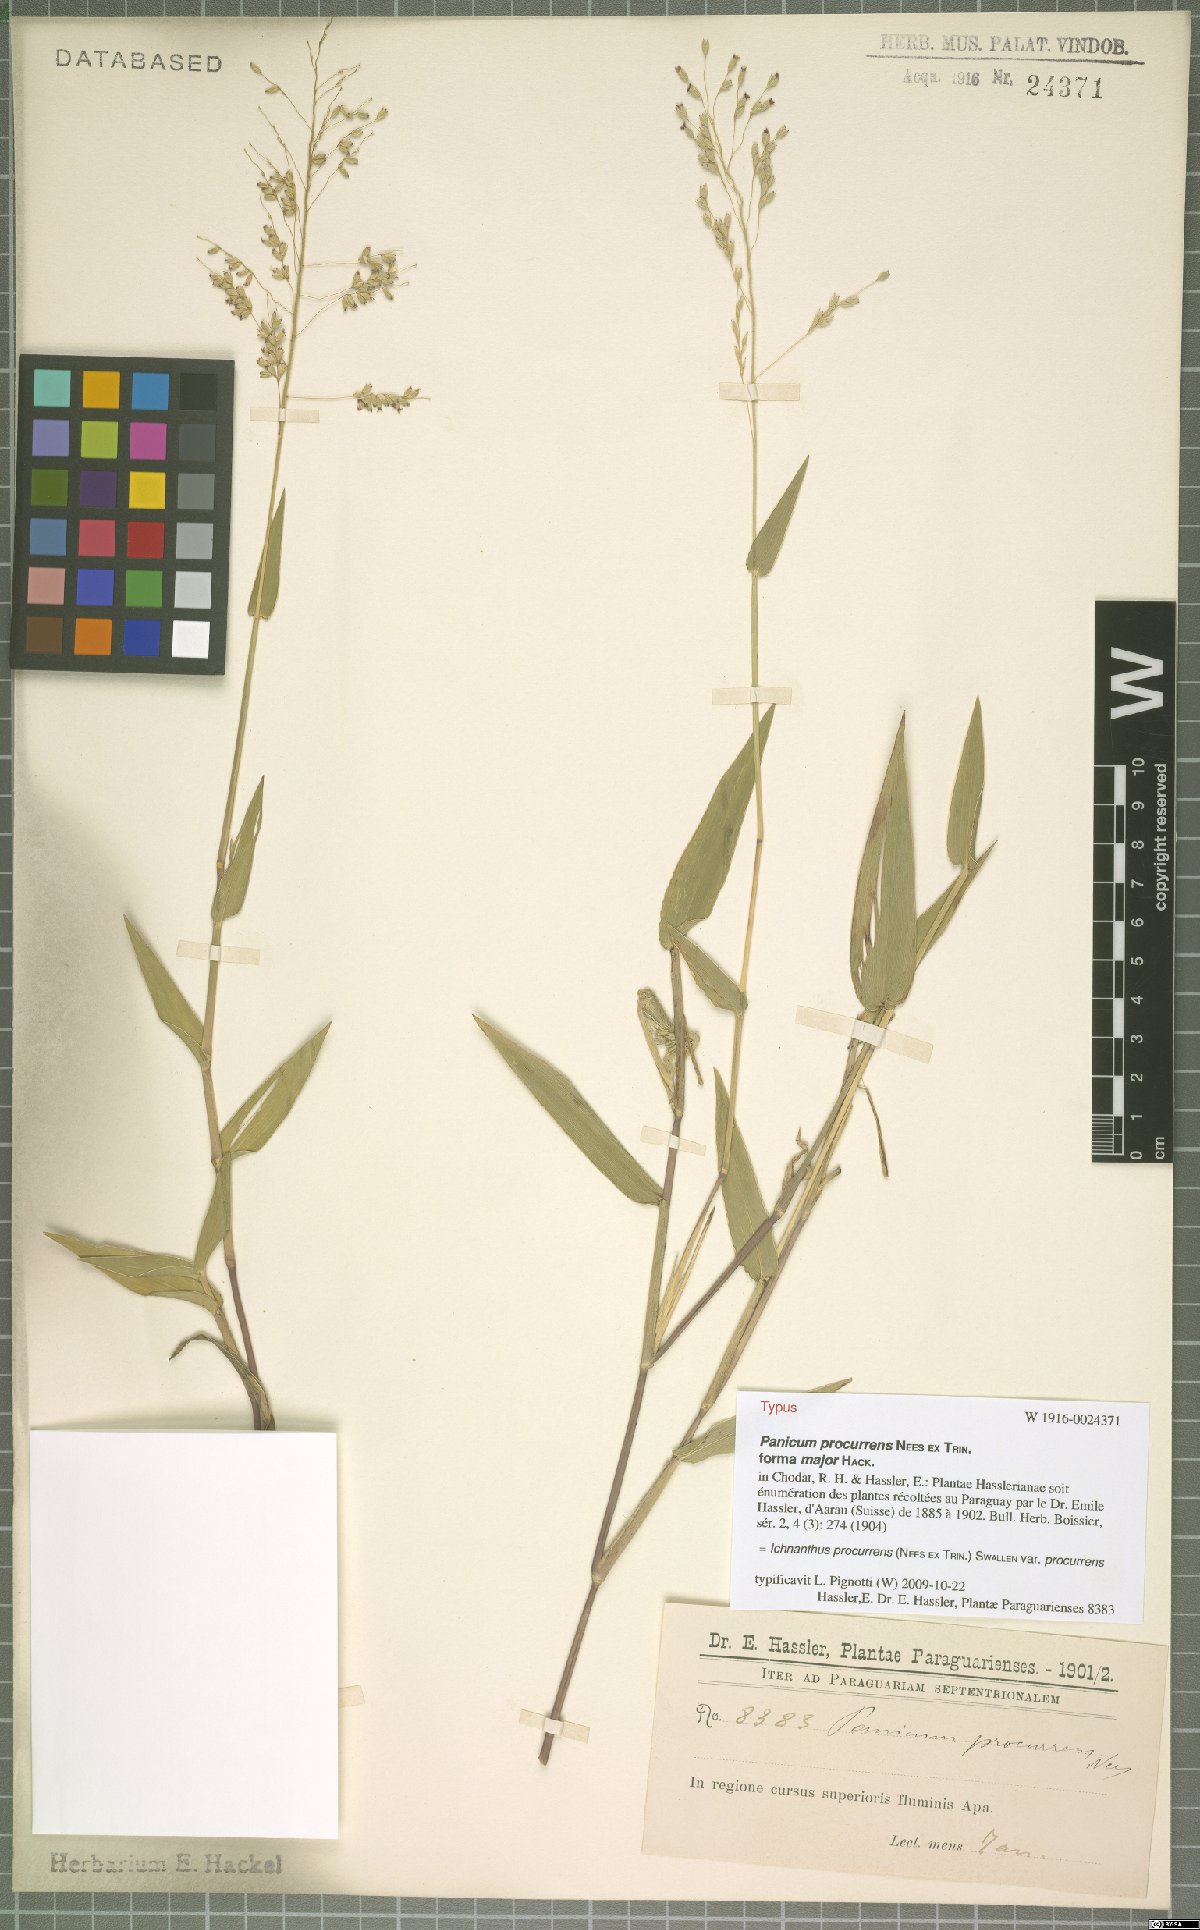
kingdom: Plantae
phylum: Tracheophyta
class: Liliopsida
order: Poales
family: Poaceae
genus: Oedochloa
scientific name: Oedochloa procurrens
